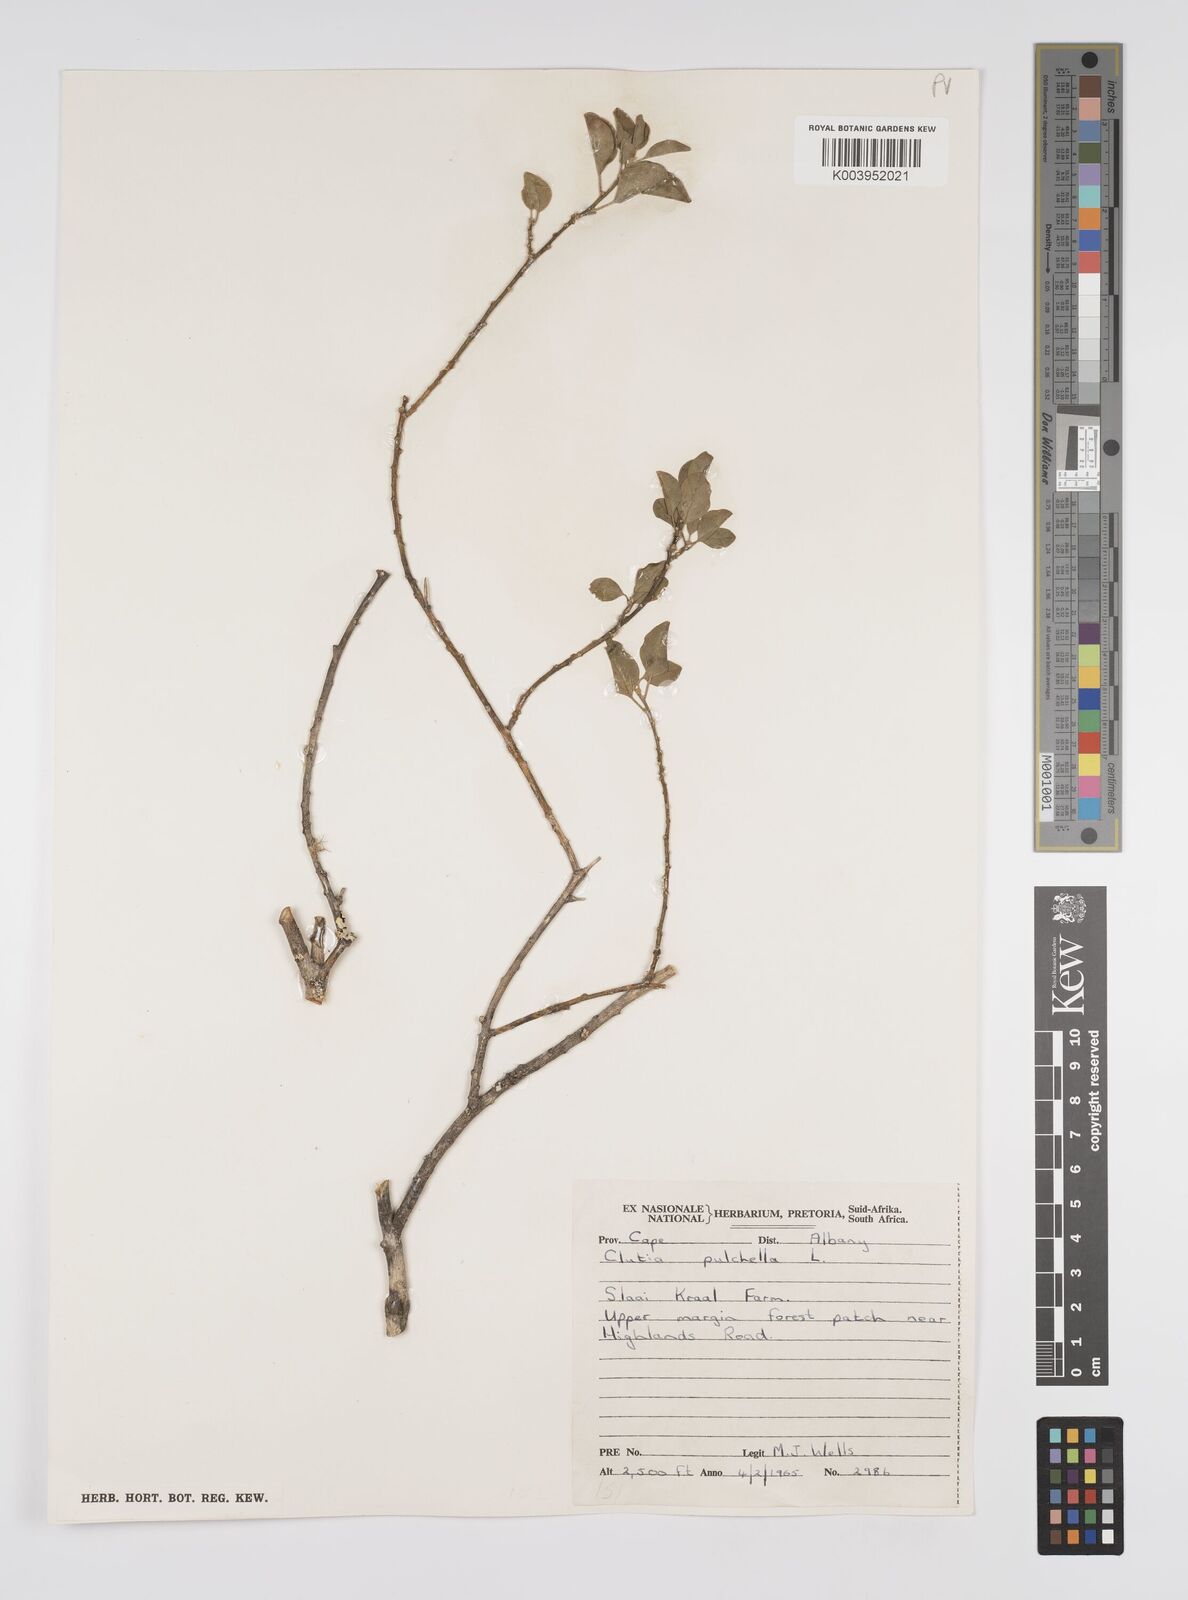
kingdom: Plantae
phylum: Tracheophyta
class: Magnoliopsida
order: Malpighiales
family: Peraceae
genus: Clutia
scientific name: Clutia pulchella
